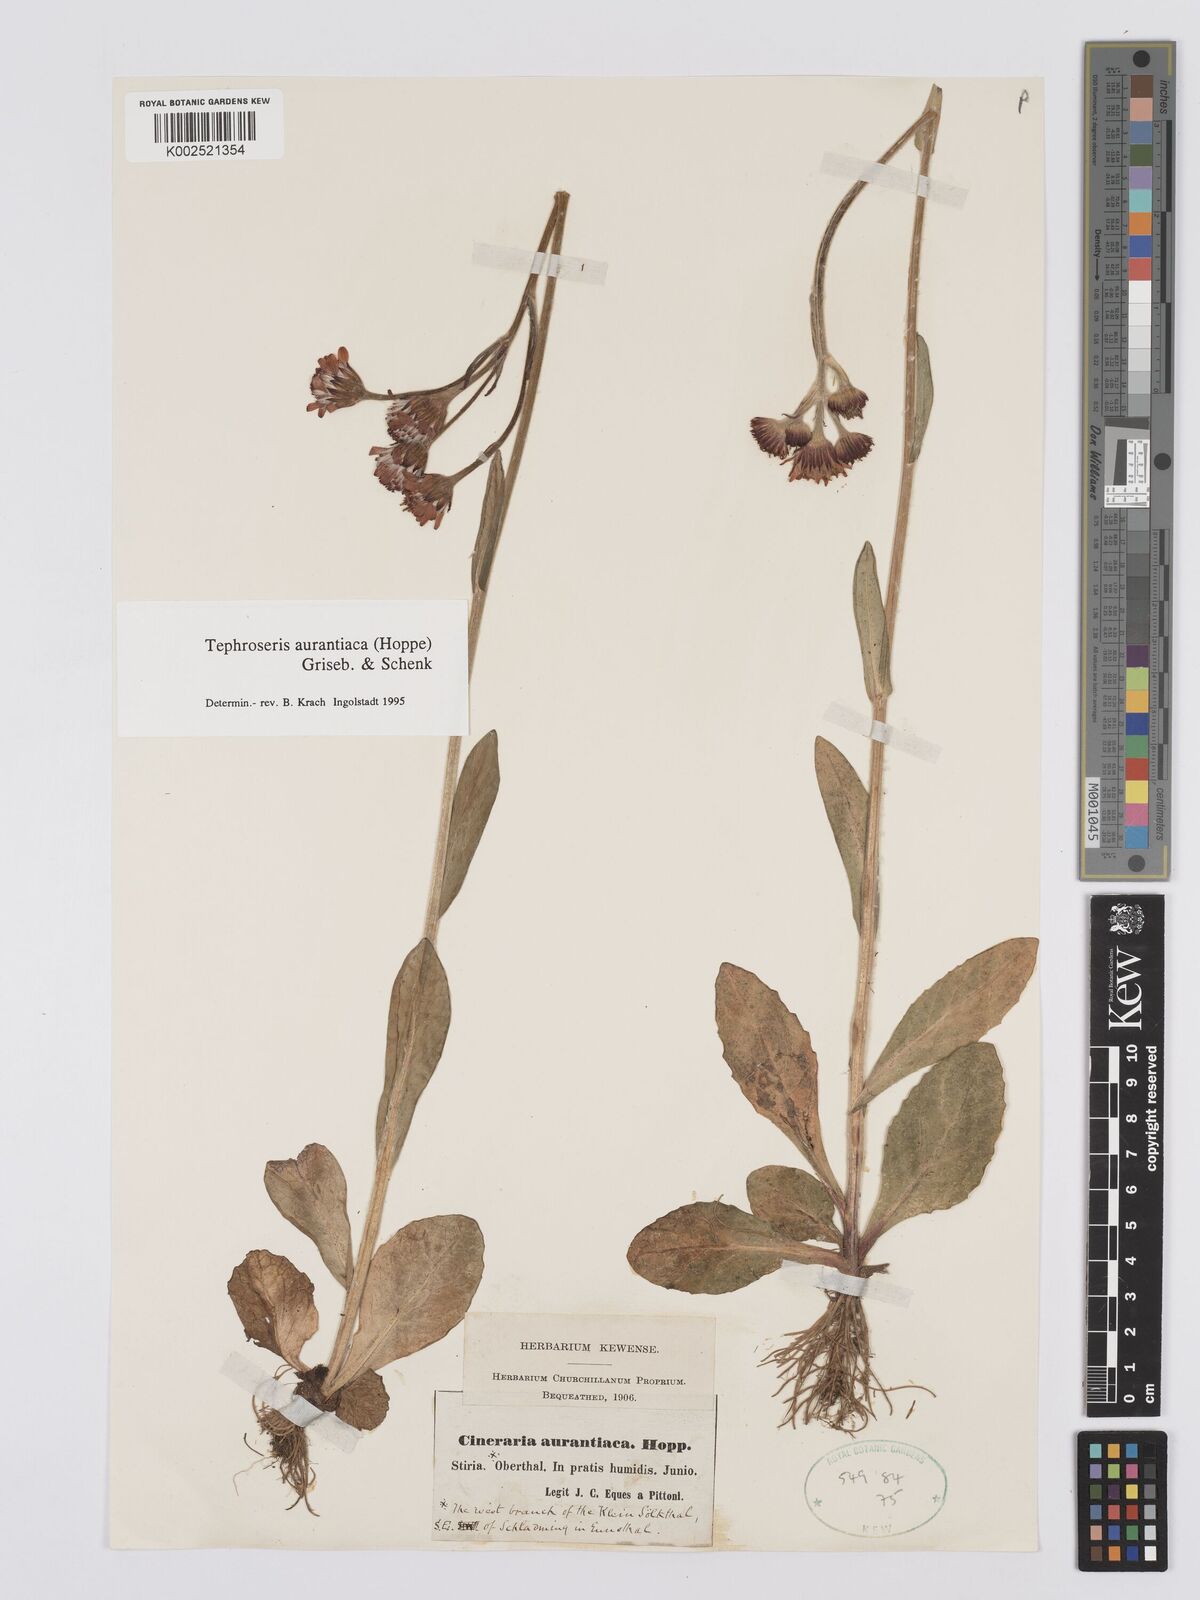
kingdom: Plantae
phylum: Tracheophyta
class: Magnoliopsida
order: Asterales
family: Asteraceae
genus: Tephroseris
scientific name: Tephroseris aurantiaca
